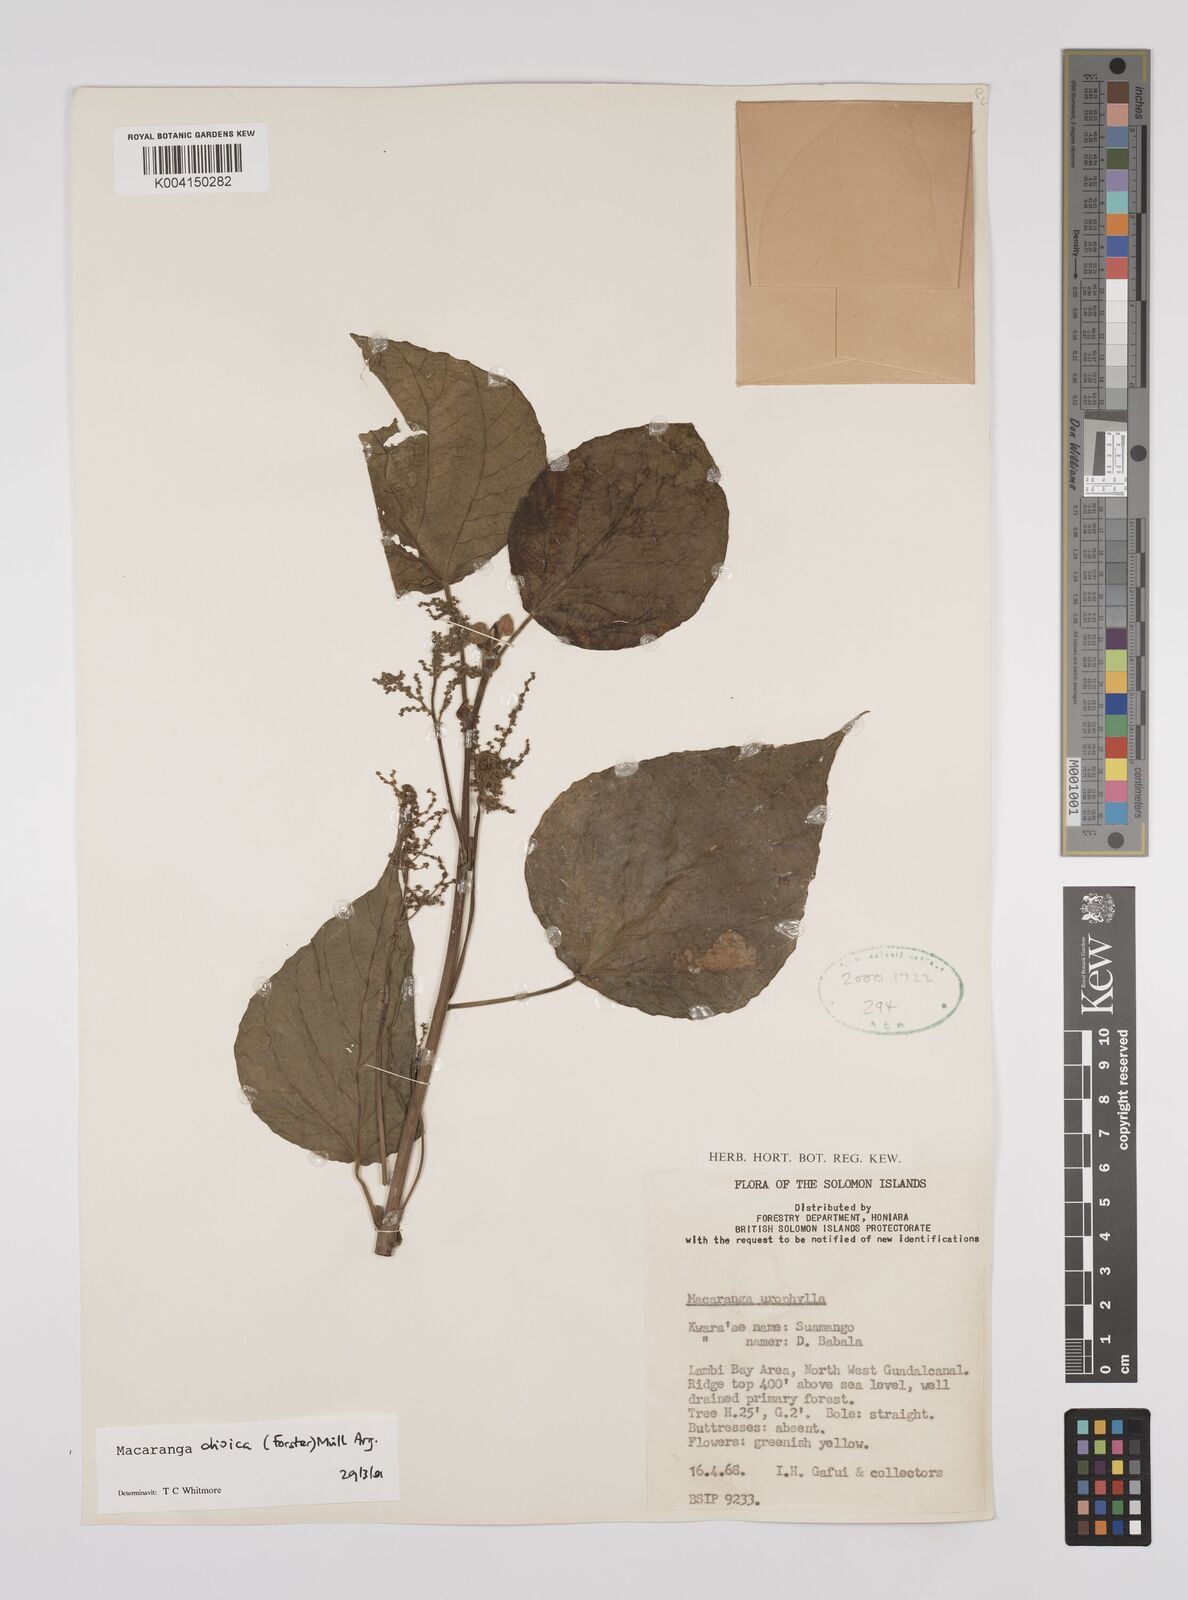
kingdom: Plantae
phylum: Tracheophyta
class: Magnoliopsida
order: Malpighiales
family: Euphorbiaceae
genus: Macaranga
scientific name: Macaranga dioica
